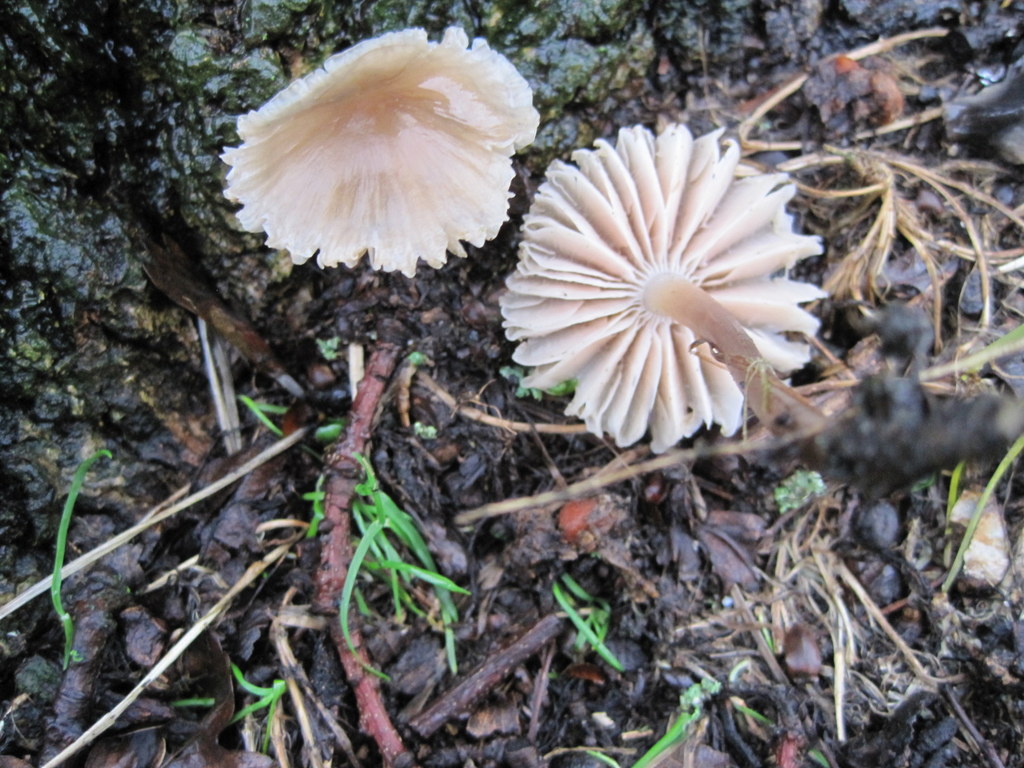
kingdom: Fungi
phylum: Basidiomycota
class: Agaricomycetes
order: Agaricales
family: Mycenaceae
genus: Mycena
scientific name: Mycena galericulata
